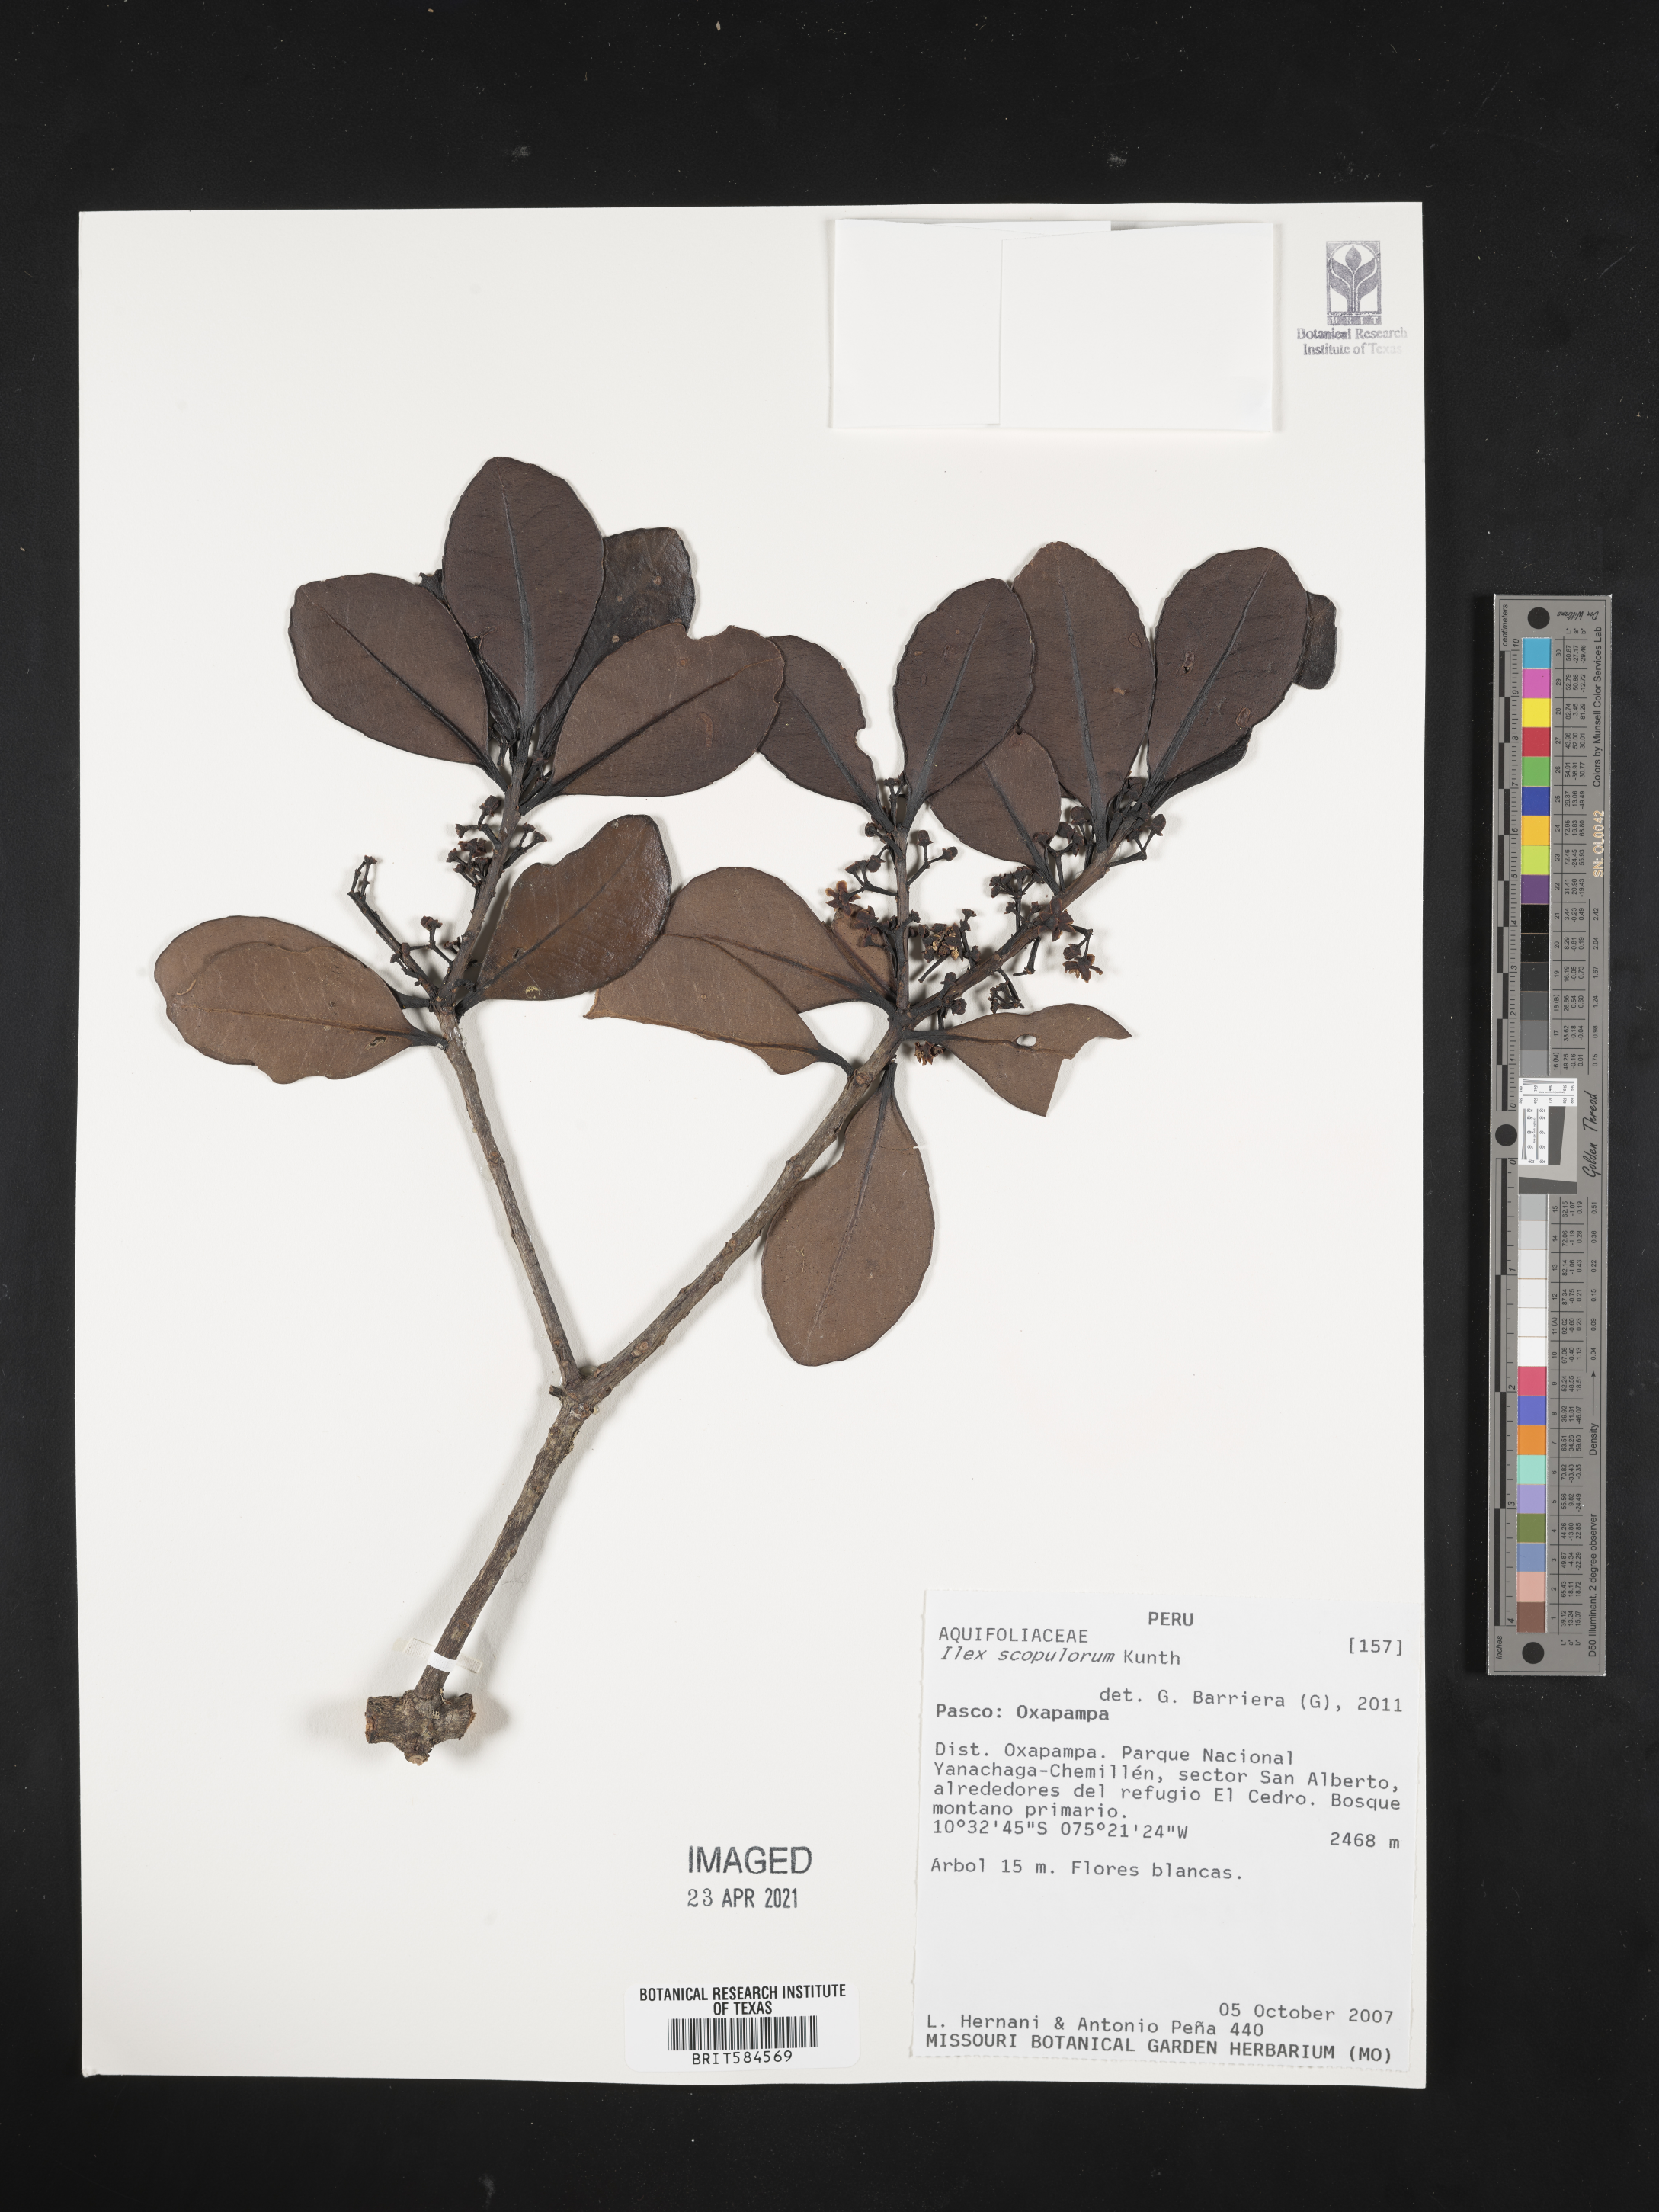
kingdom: Plantae
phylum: Tracheophyta
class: Magnoliopsida
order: Aquifoliales
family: Aquifoliaceae
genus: Ilex
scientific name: Ilex scopulorum
